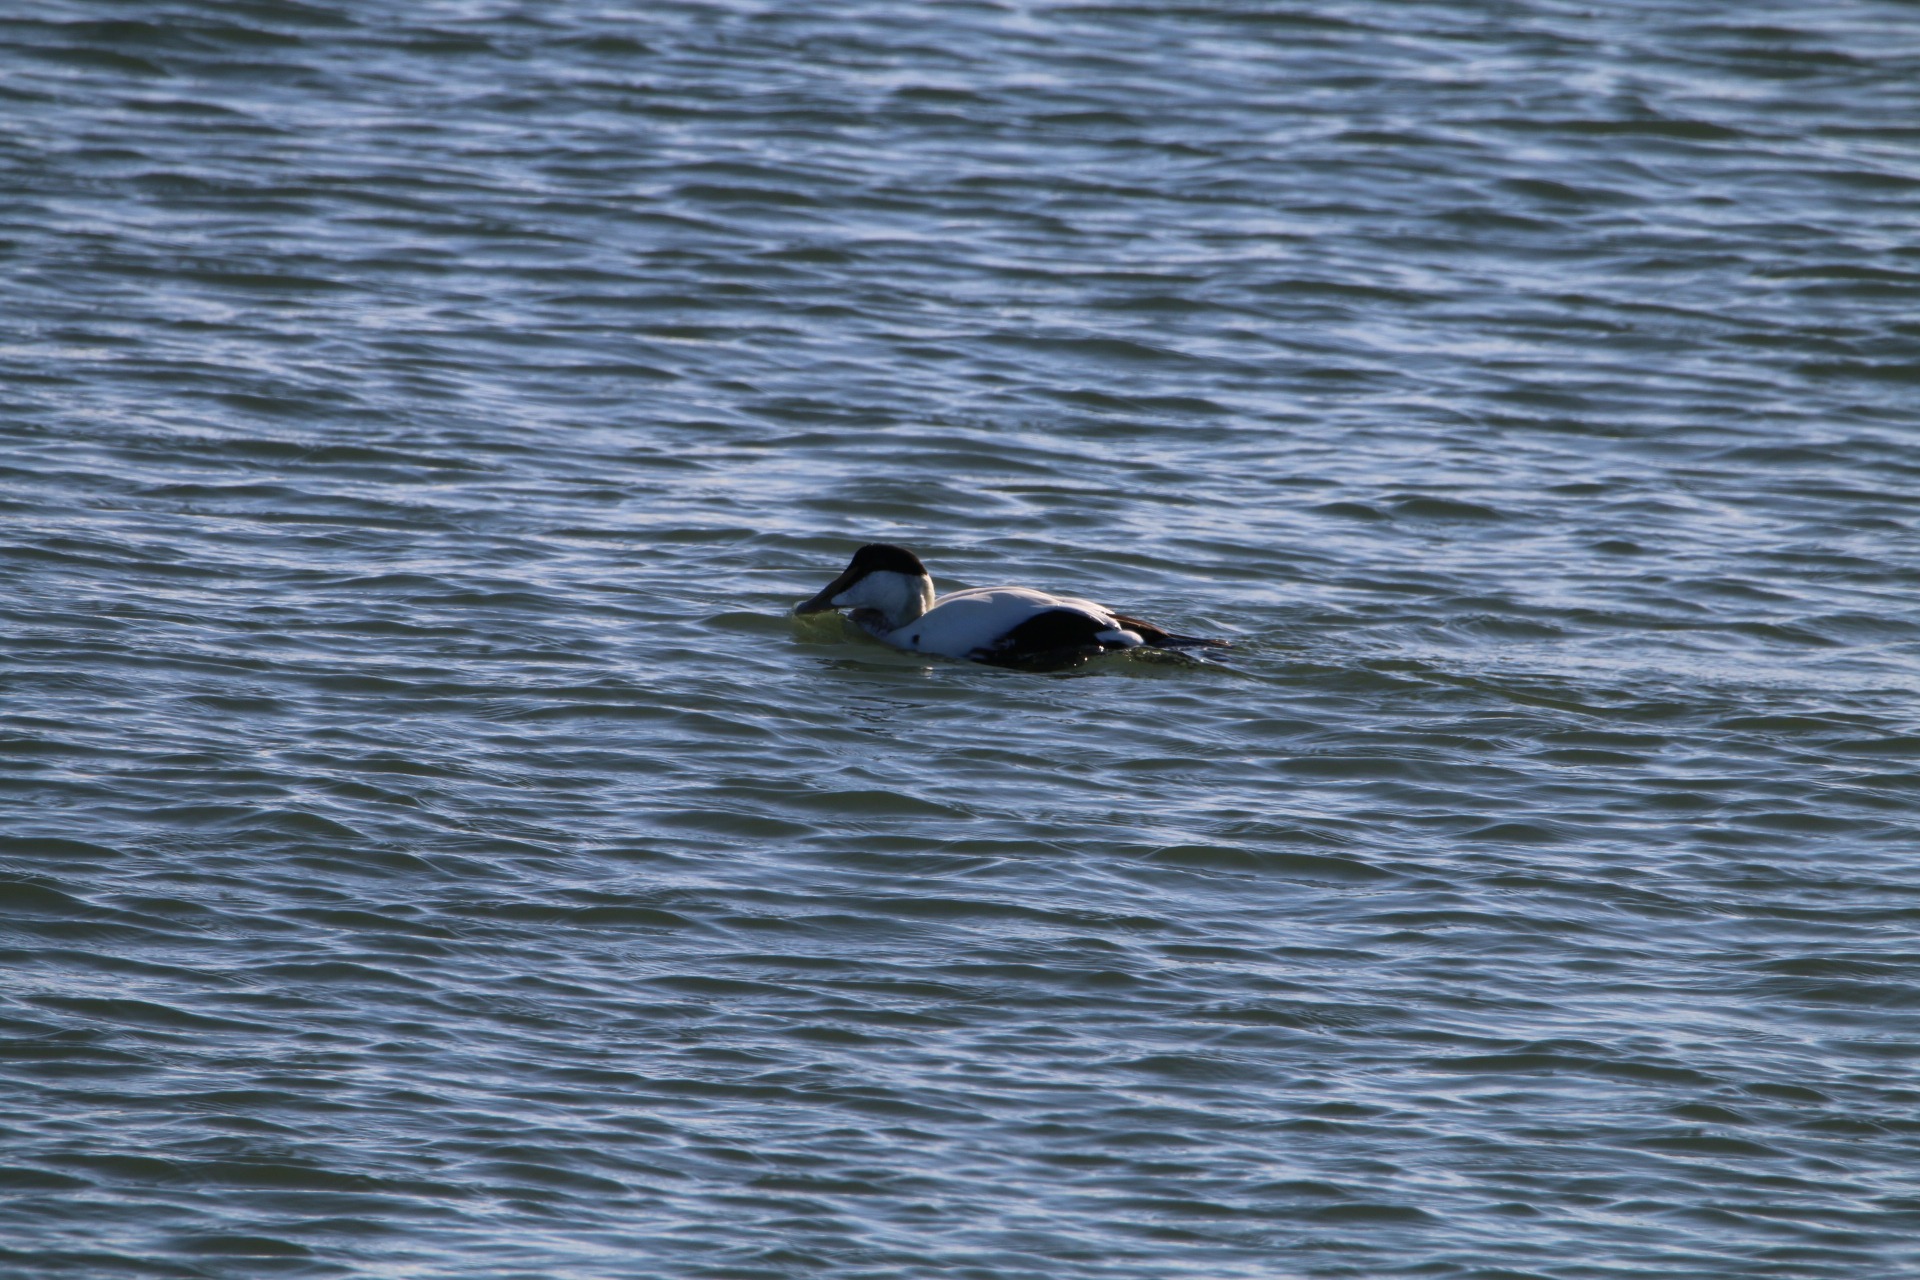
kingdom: Animalia
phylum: Chordata
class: Aves
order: Anseriformes
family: Anatidae
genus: Somateria
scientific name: Somateria mollissima
